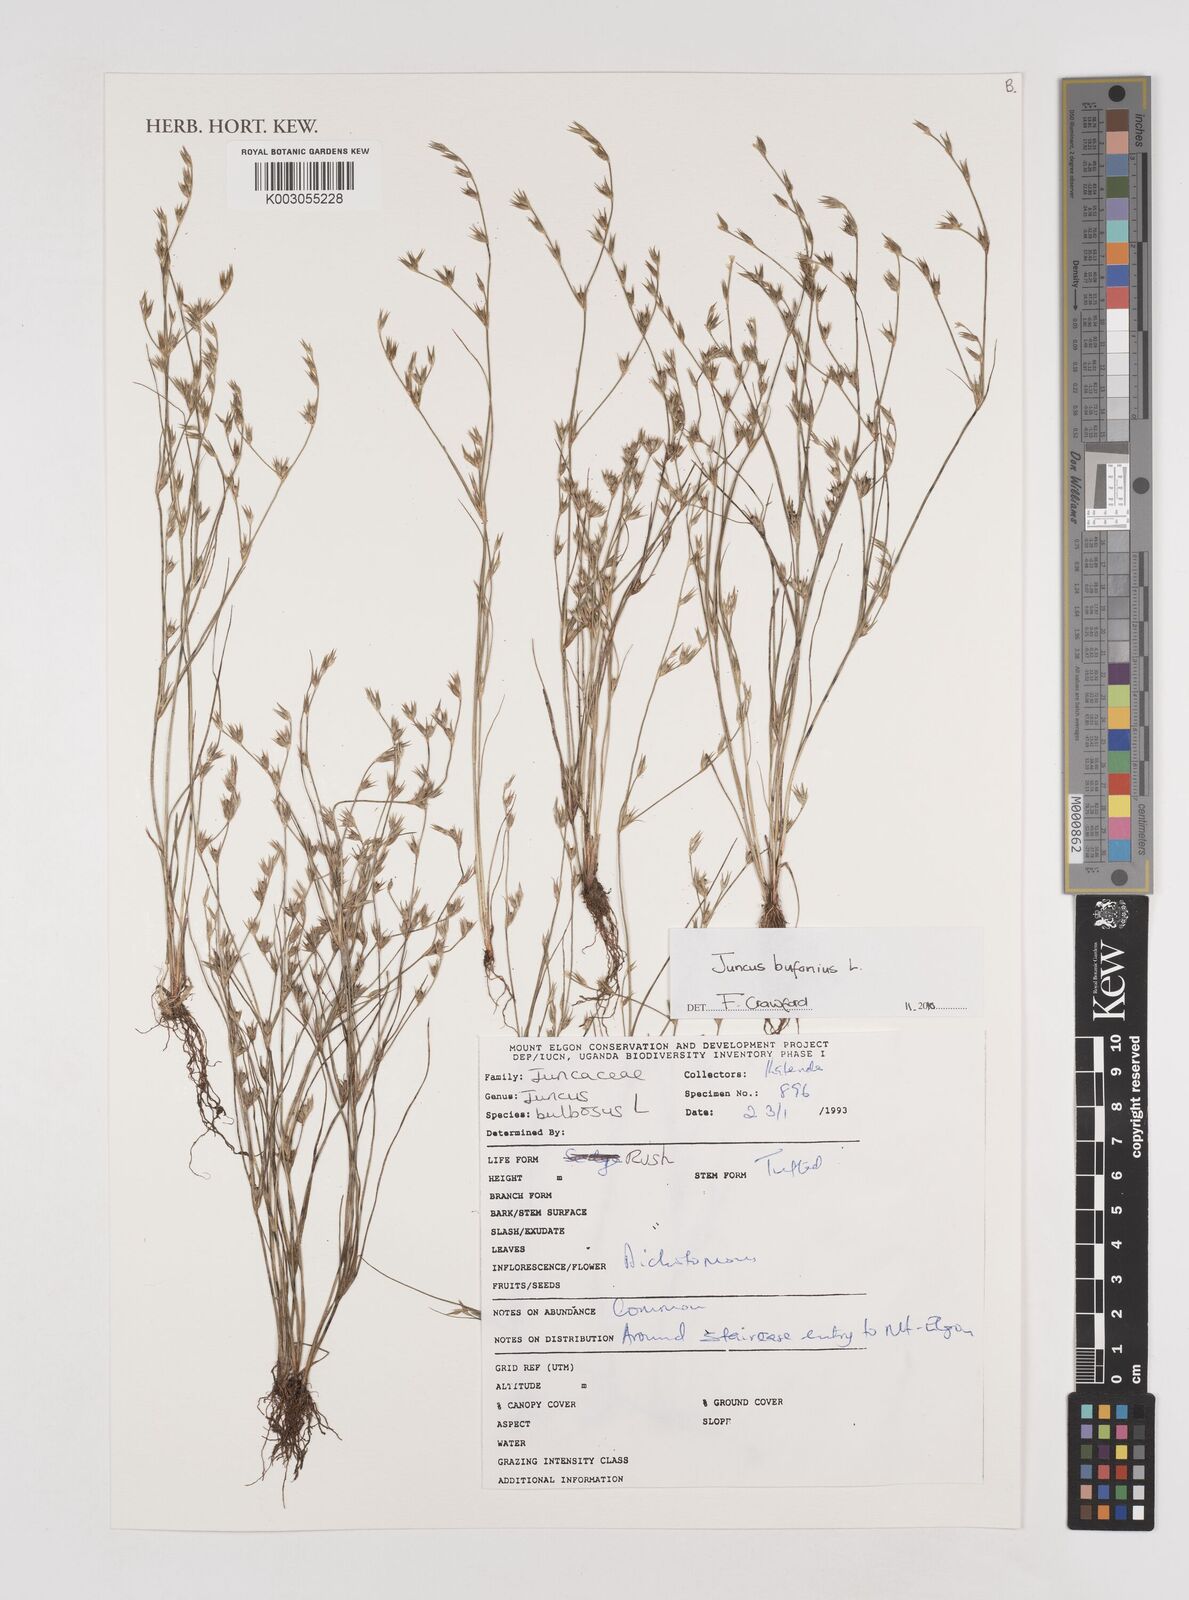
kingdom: Plantae
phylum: Tracheophyta
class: Liliopsida
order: Poales
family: Juncaceae
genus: Juncus
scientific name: Juncus bufonius
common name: Toad rush
